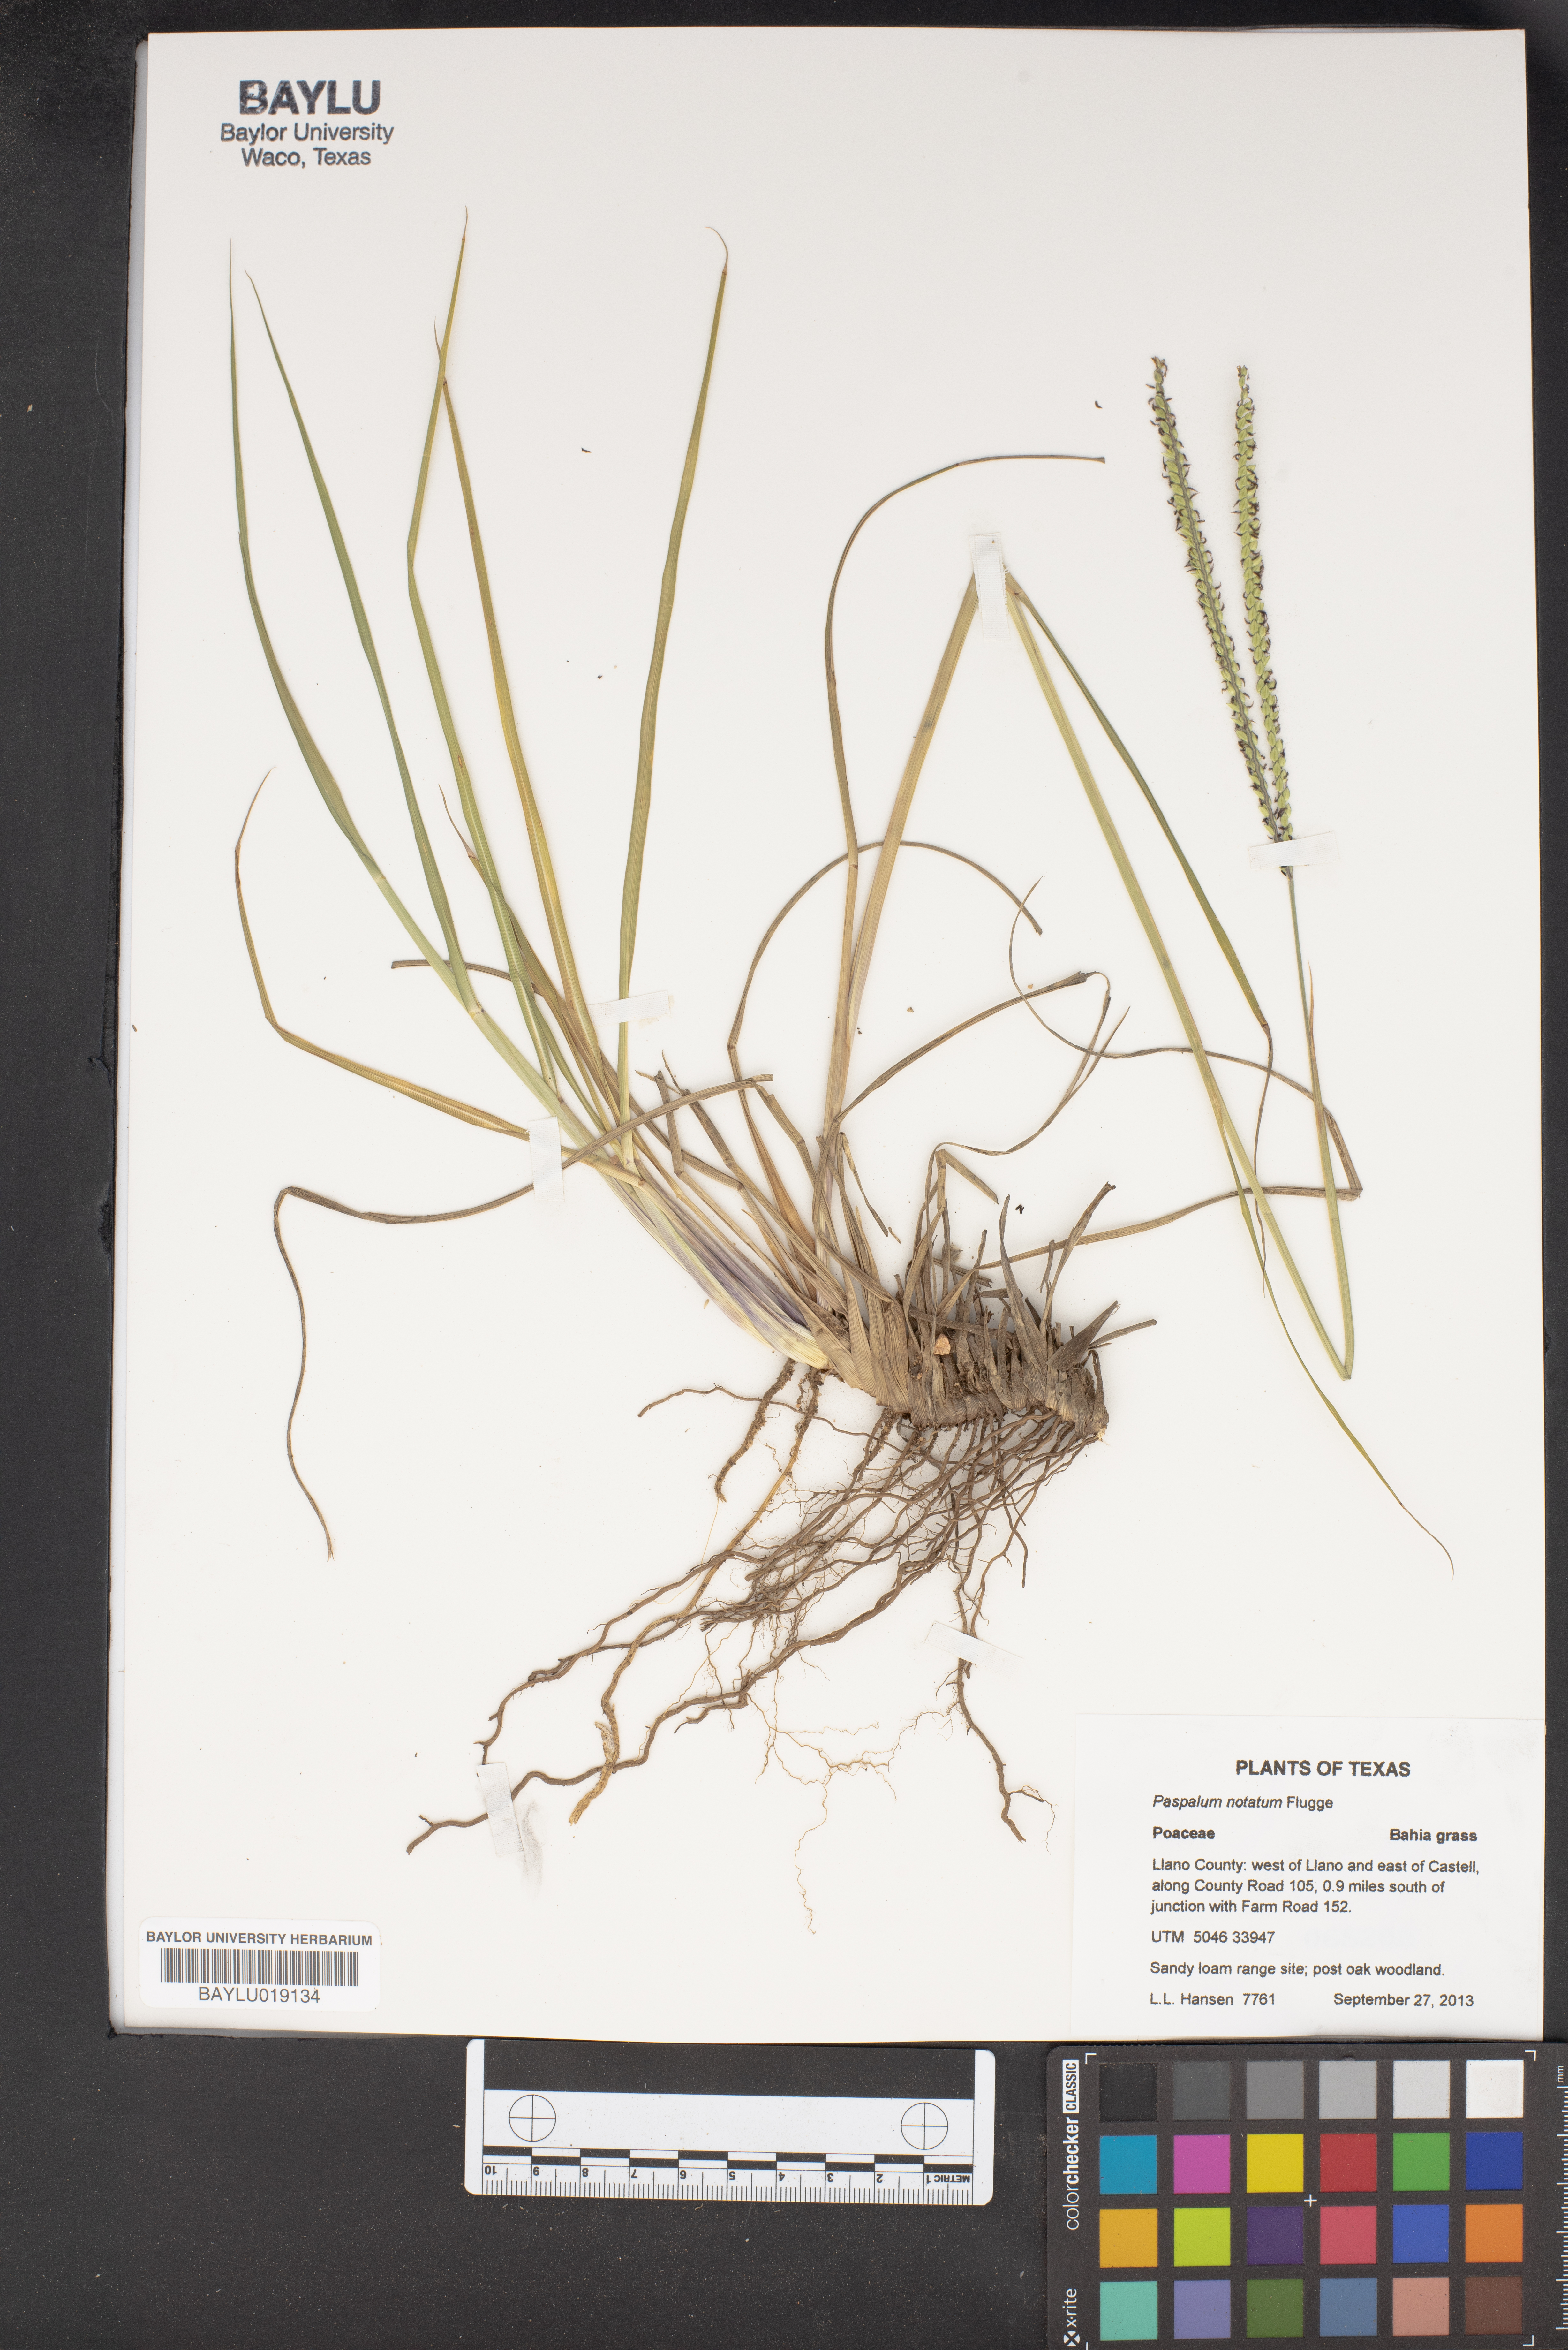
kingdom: Plantae
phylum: Tracheophyta
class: Liliopsida
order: Poales
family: Poaceae
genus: Paspalum
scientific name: Paspalum notatum
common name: Bahiagrass
